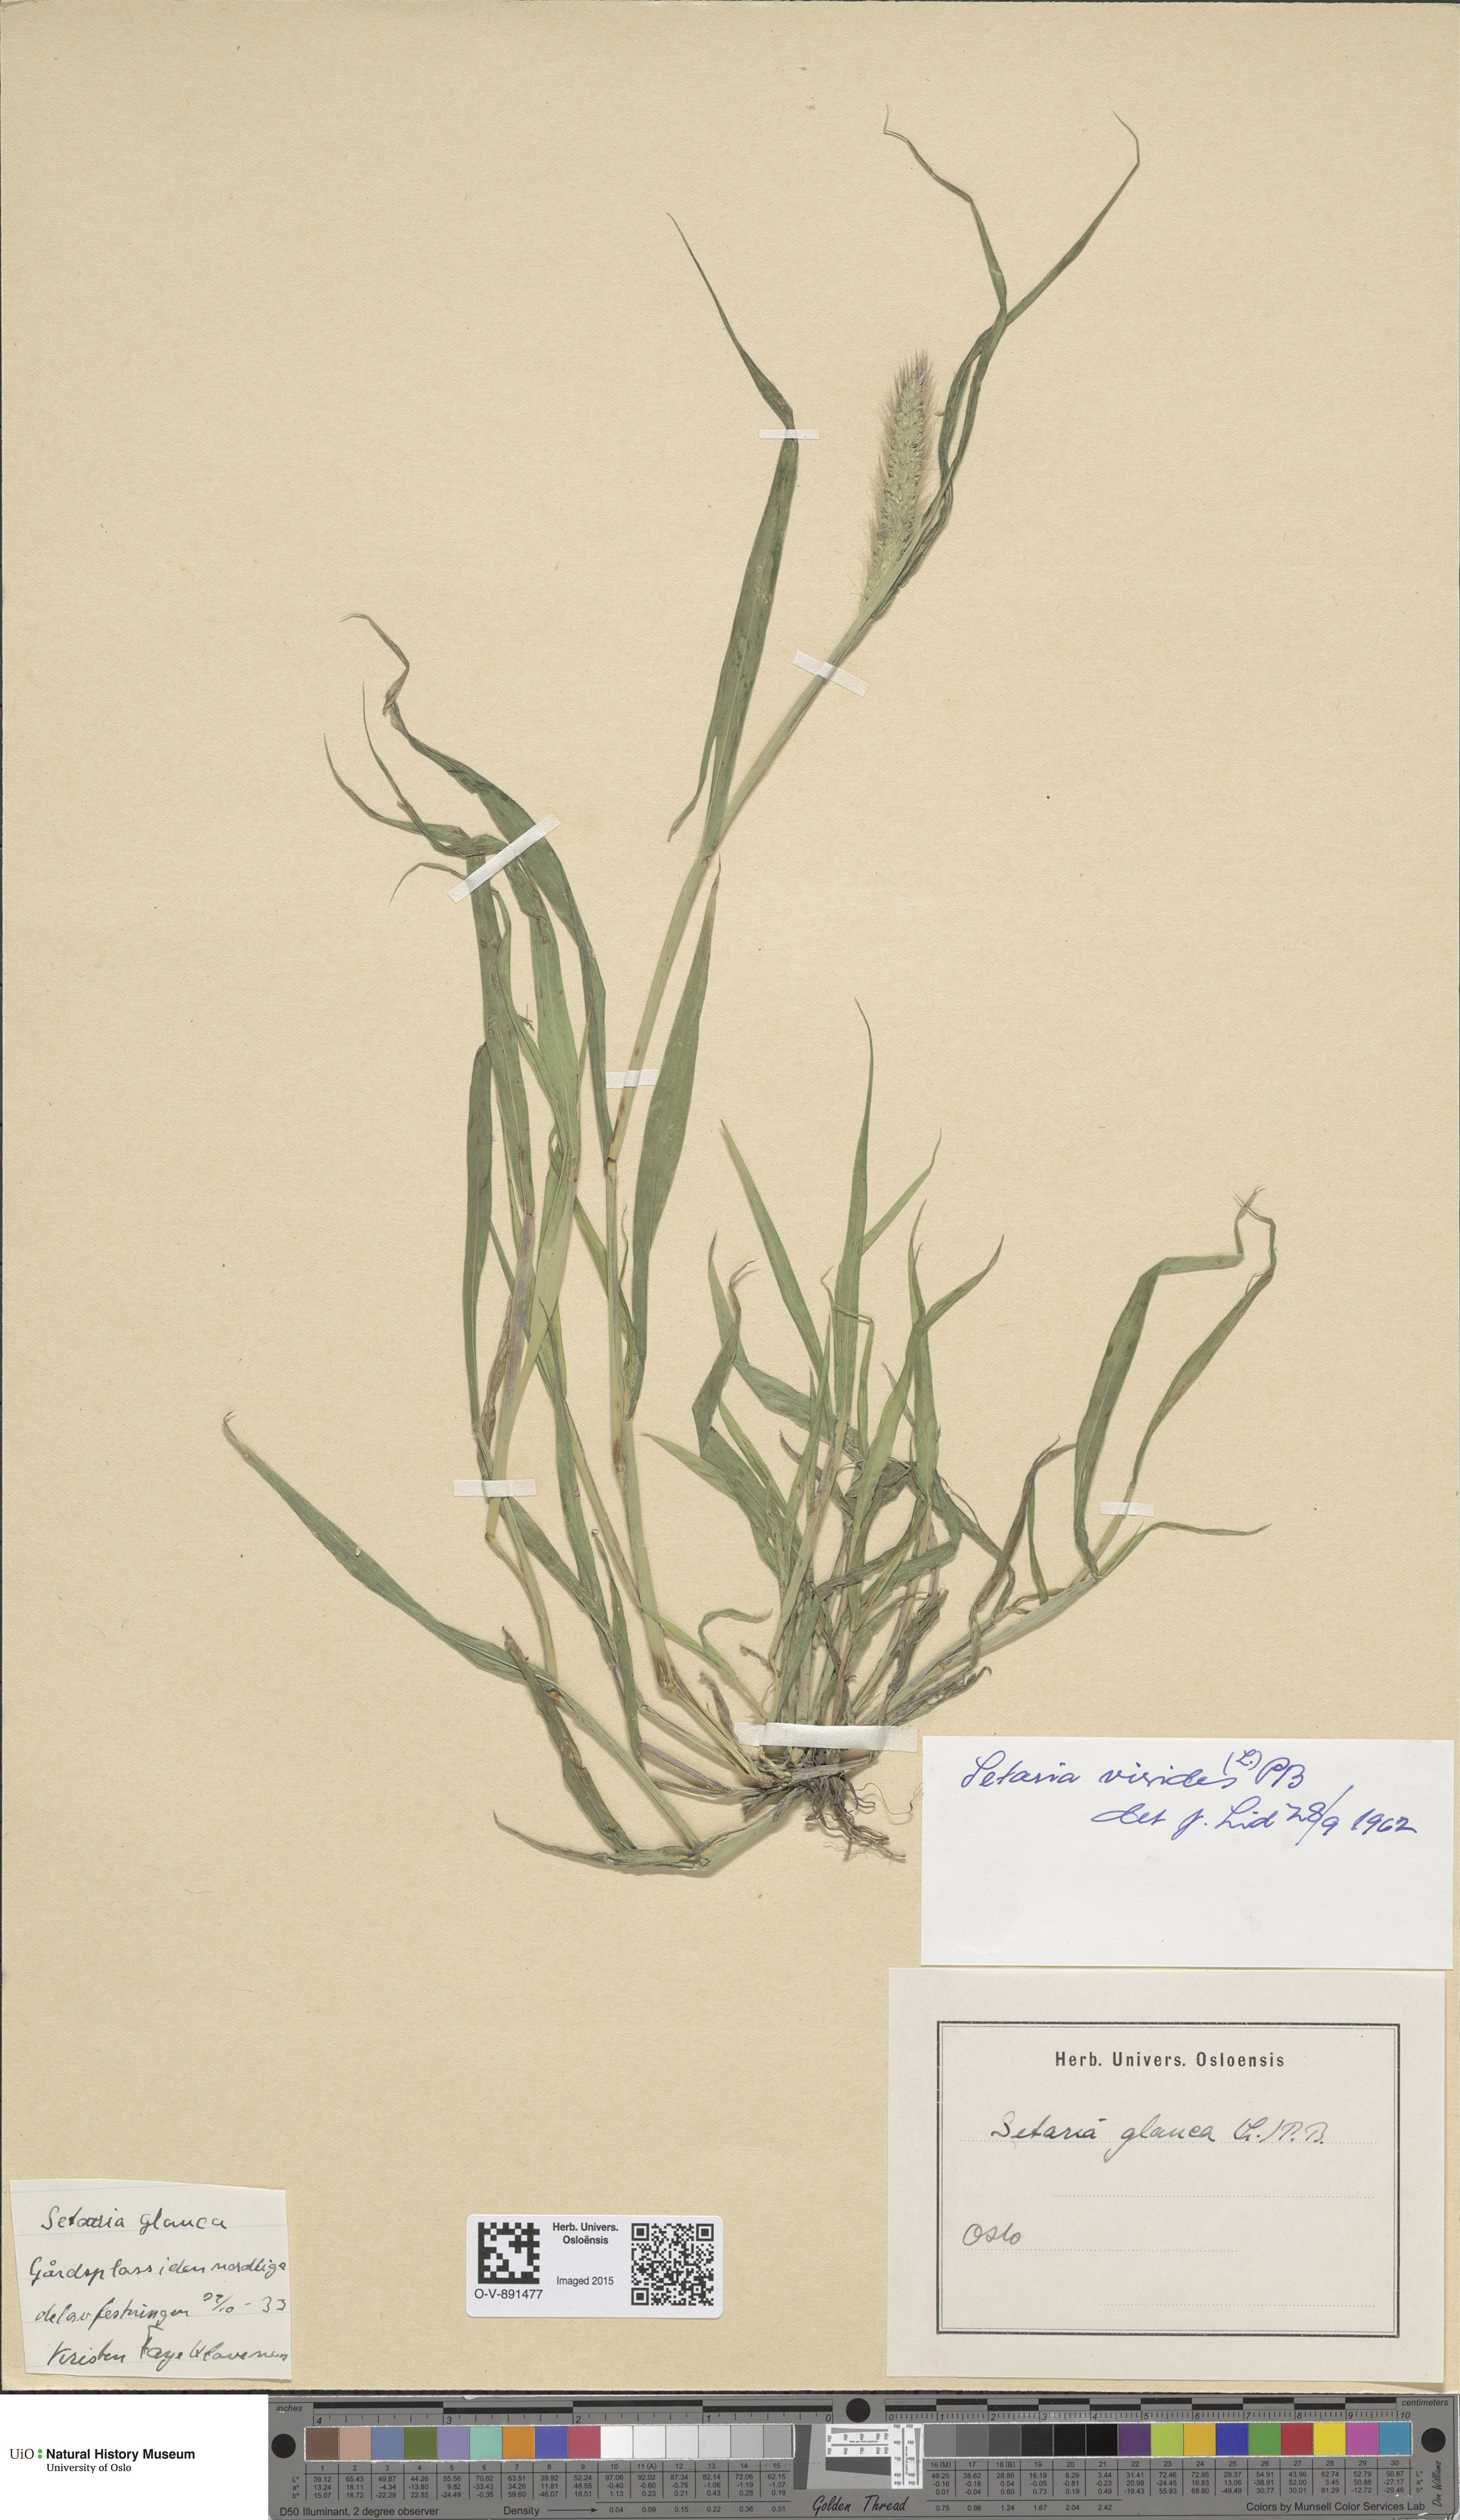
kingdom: Plantae
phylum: Tracheophyta
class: Liliopsida
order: Poales
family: Poaceae
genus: Setaria
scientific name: Setaria viridis
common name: Green bristlegrass
